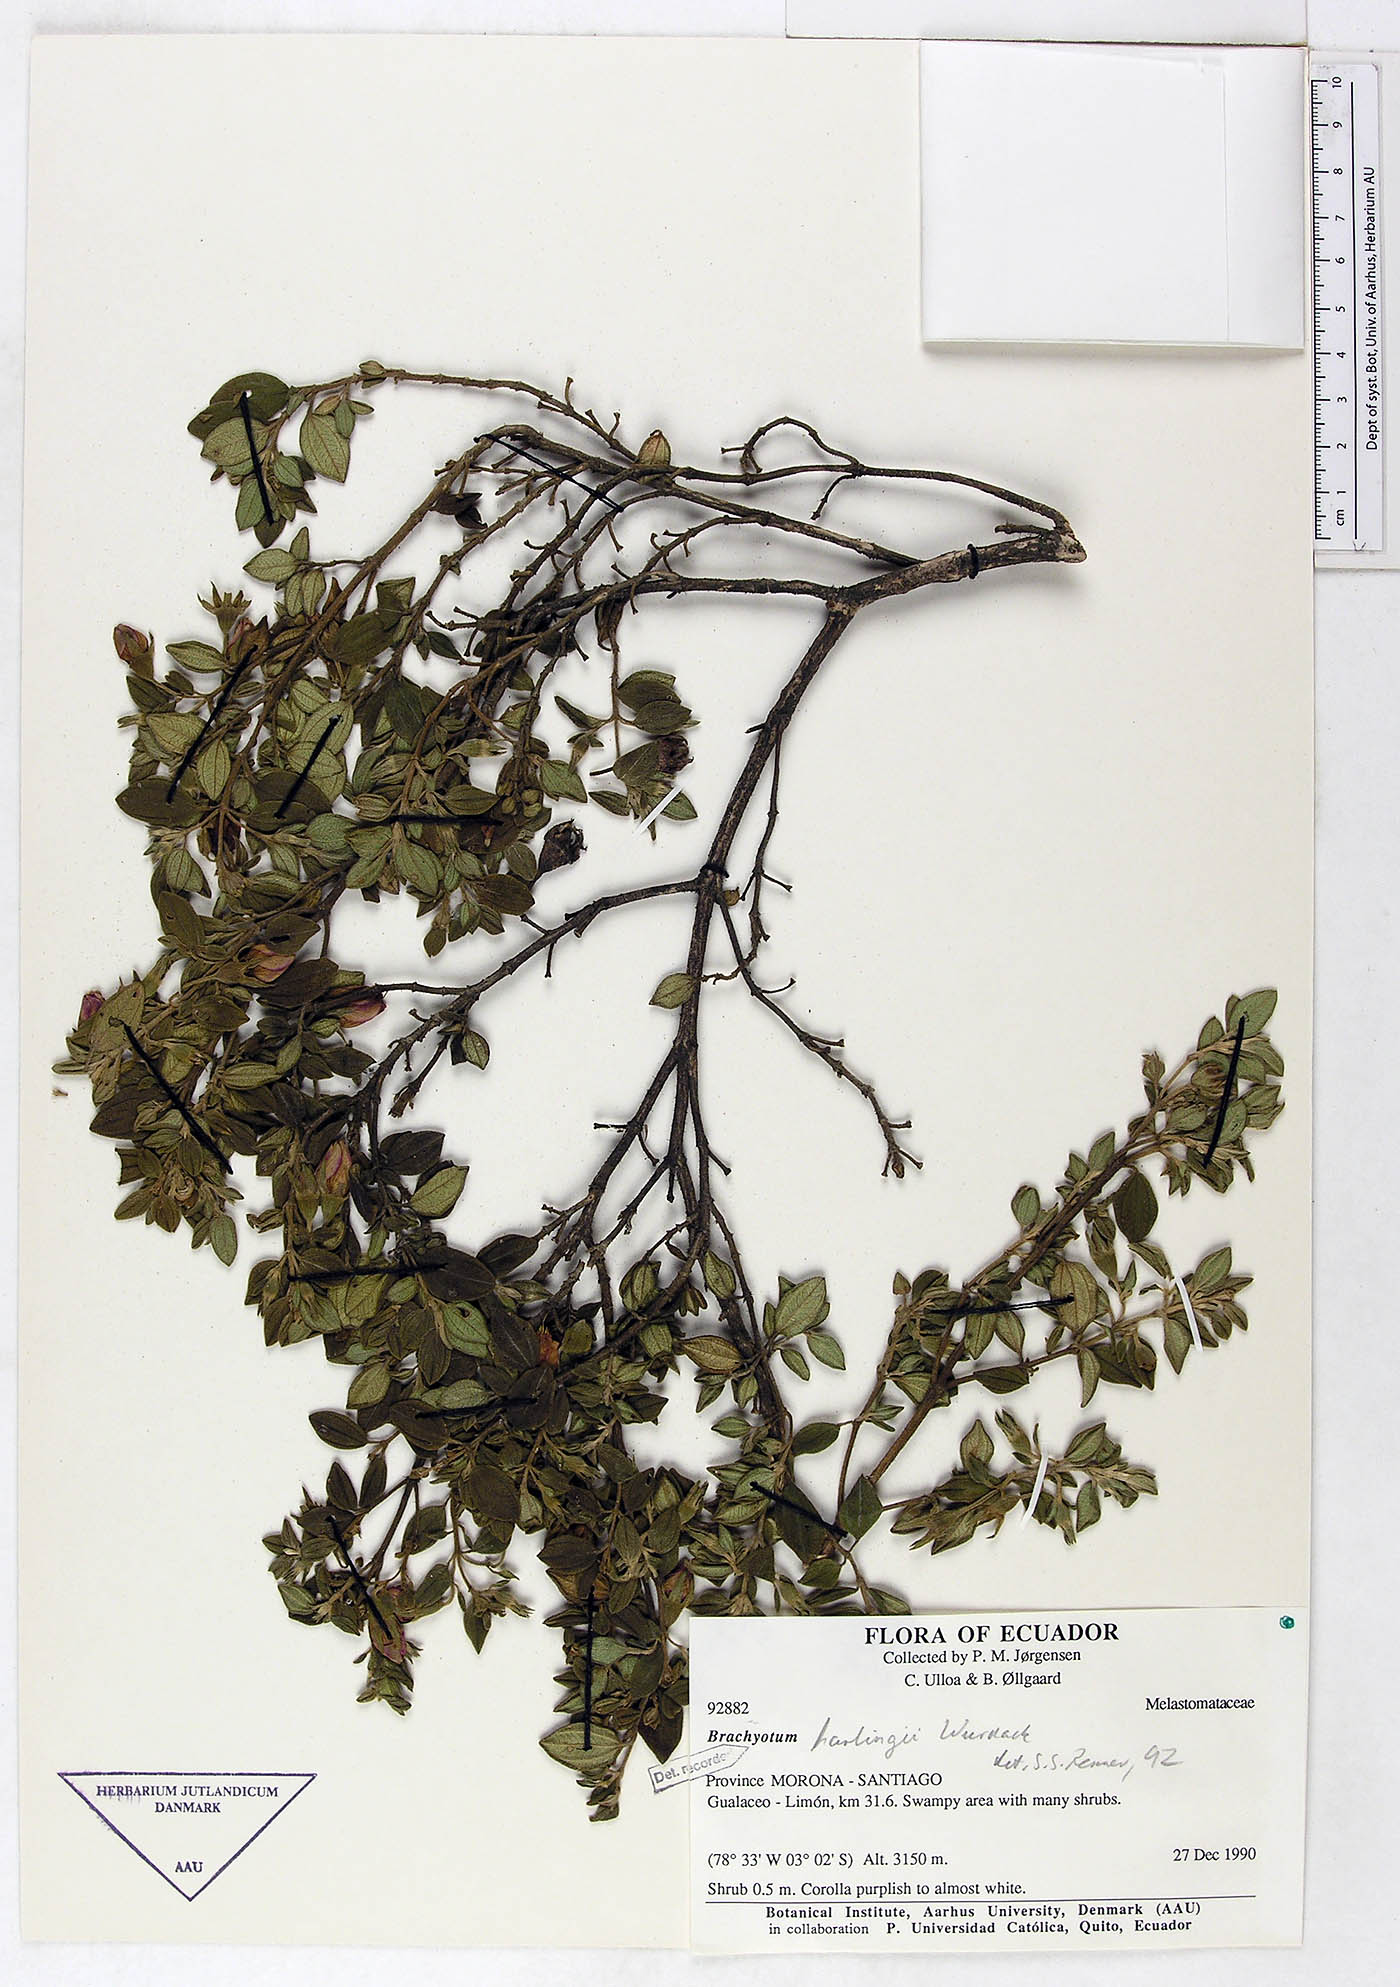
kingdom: Plantae
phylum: Tracheophyta
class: Magnoliopsida
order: Myrtales
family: Melastomataceae
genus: Brachyotum
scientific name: Brachyotum harlingii
